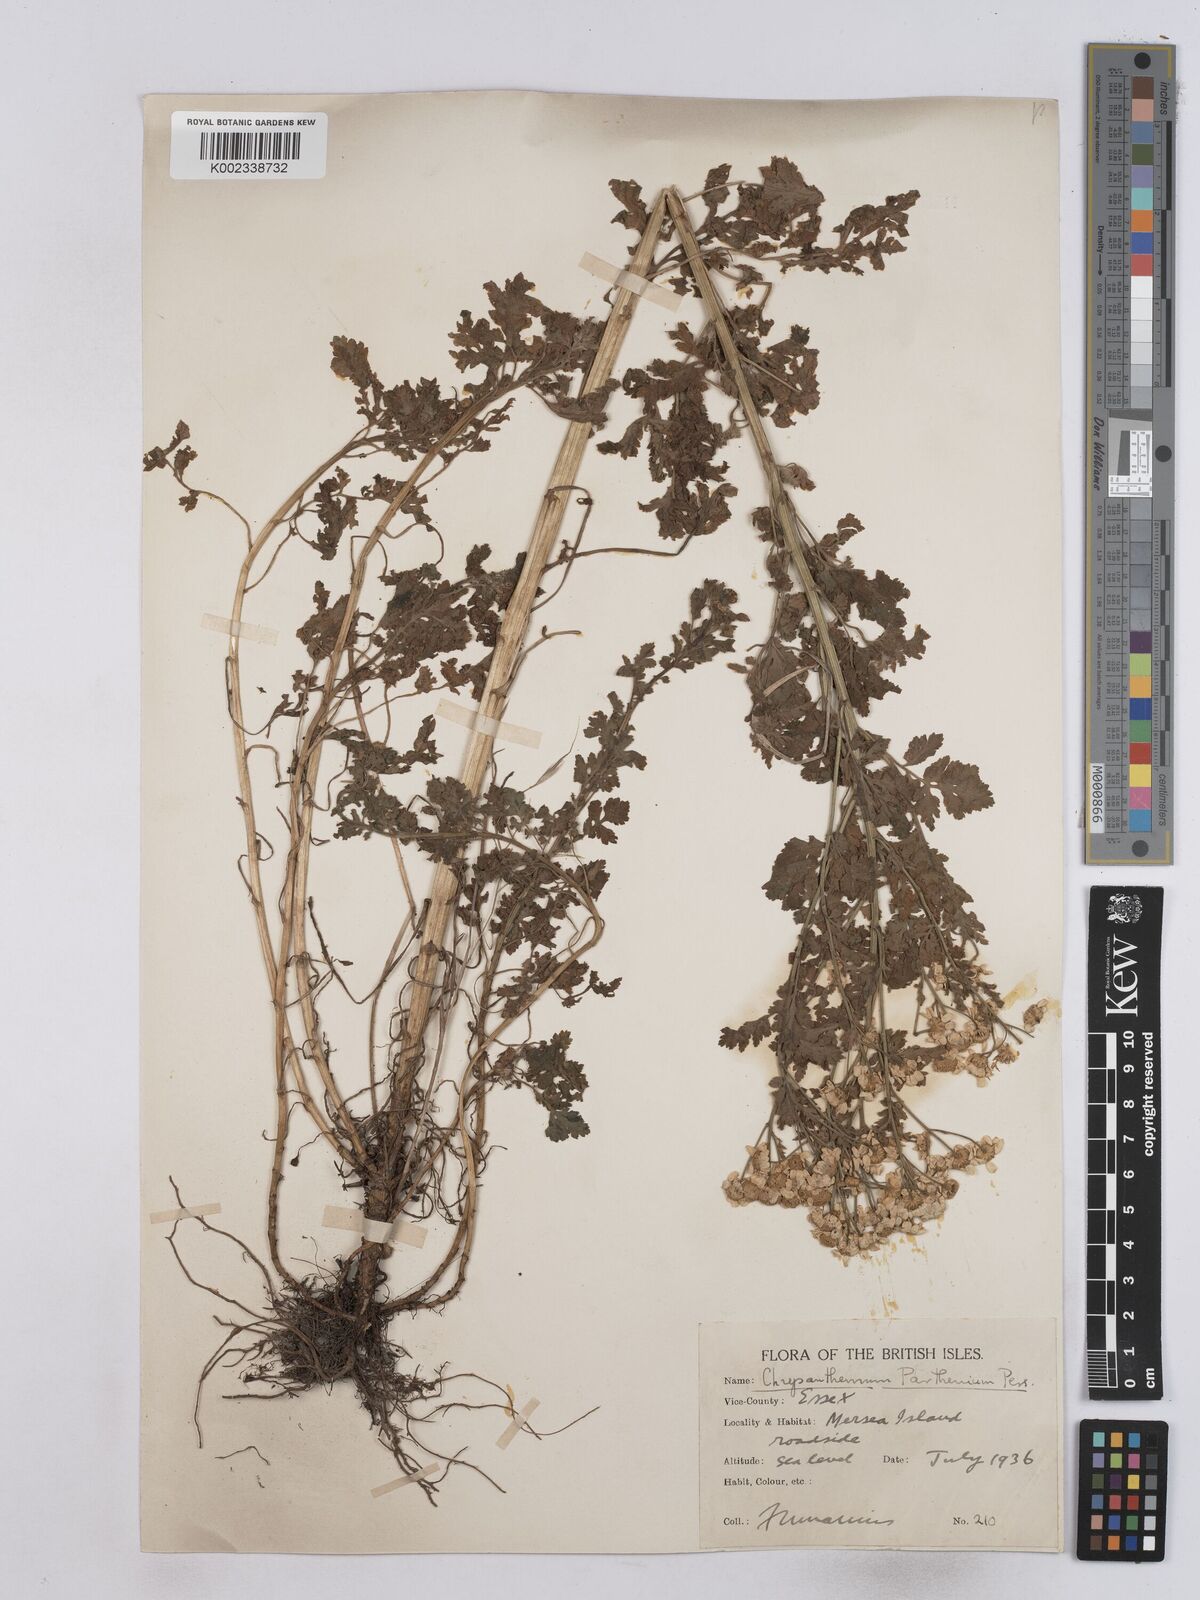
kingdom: Plantae
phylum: Tracheophyta
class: Magnoliopsida
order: Asterales
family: Asteraceae
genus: Tanacetum
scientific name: Tanacetum parthenium
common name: Feverfew
